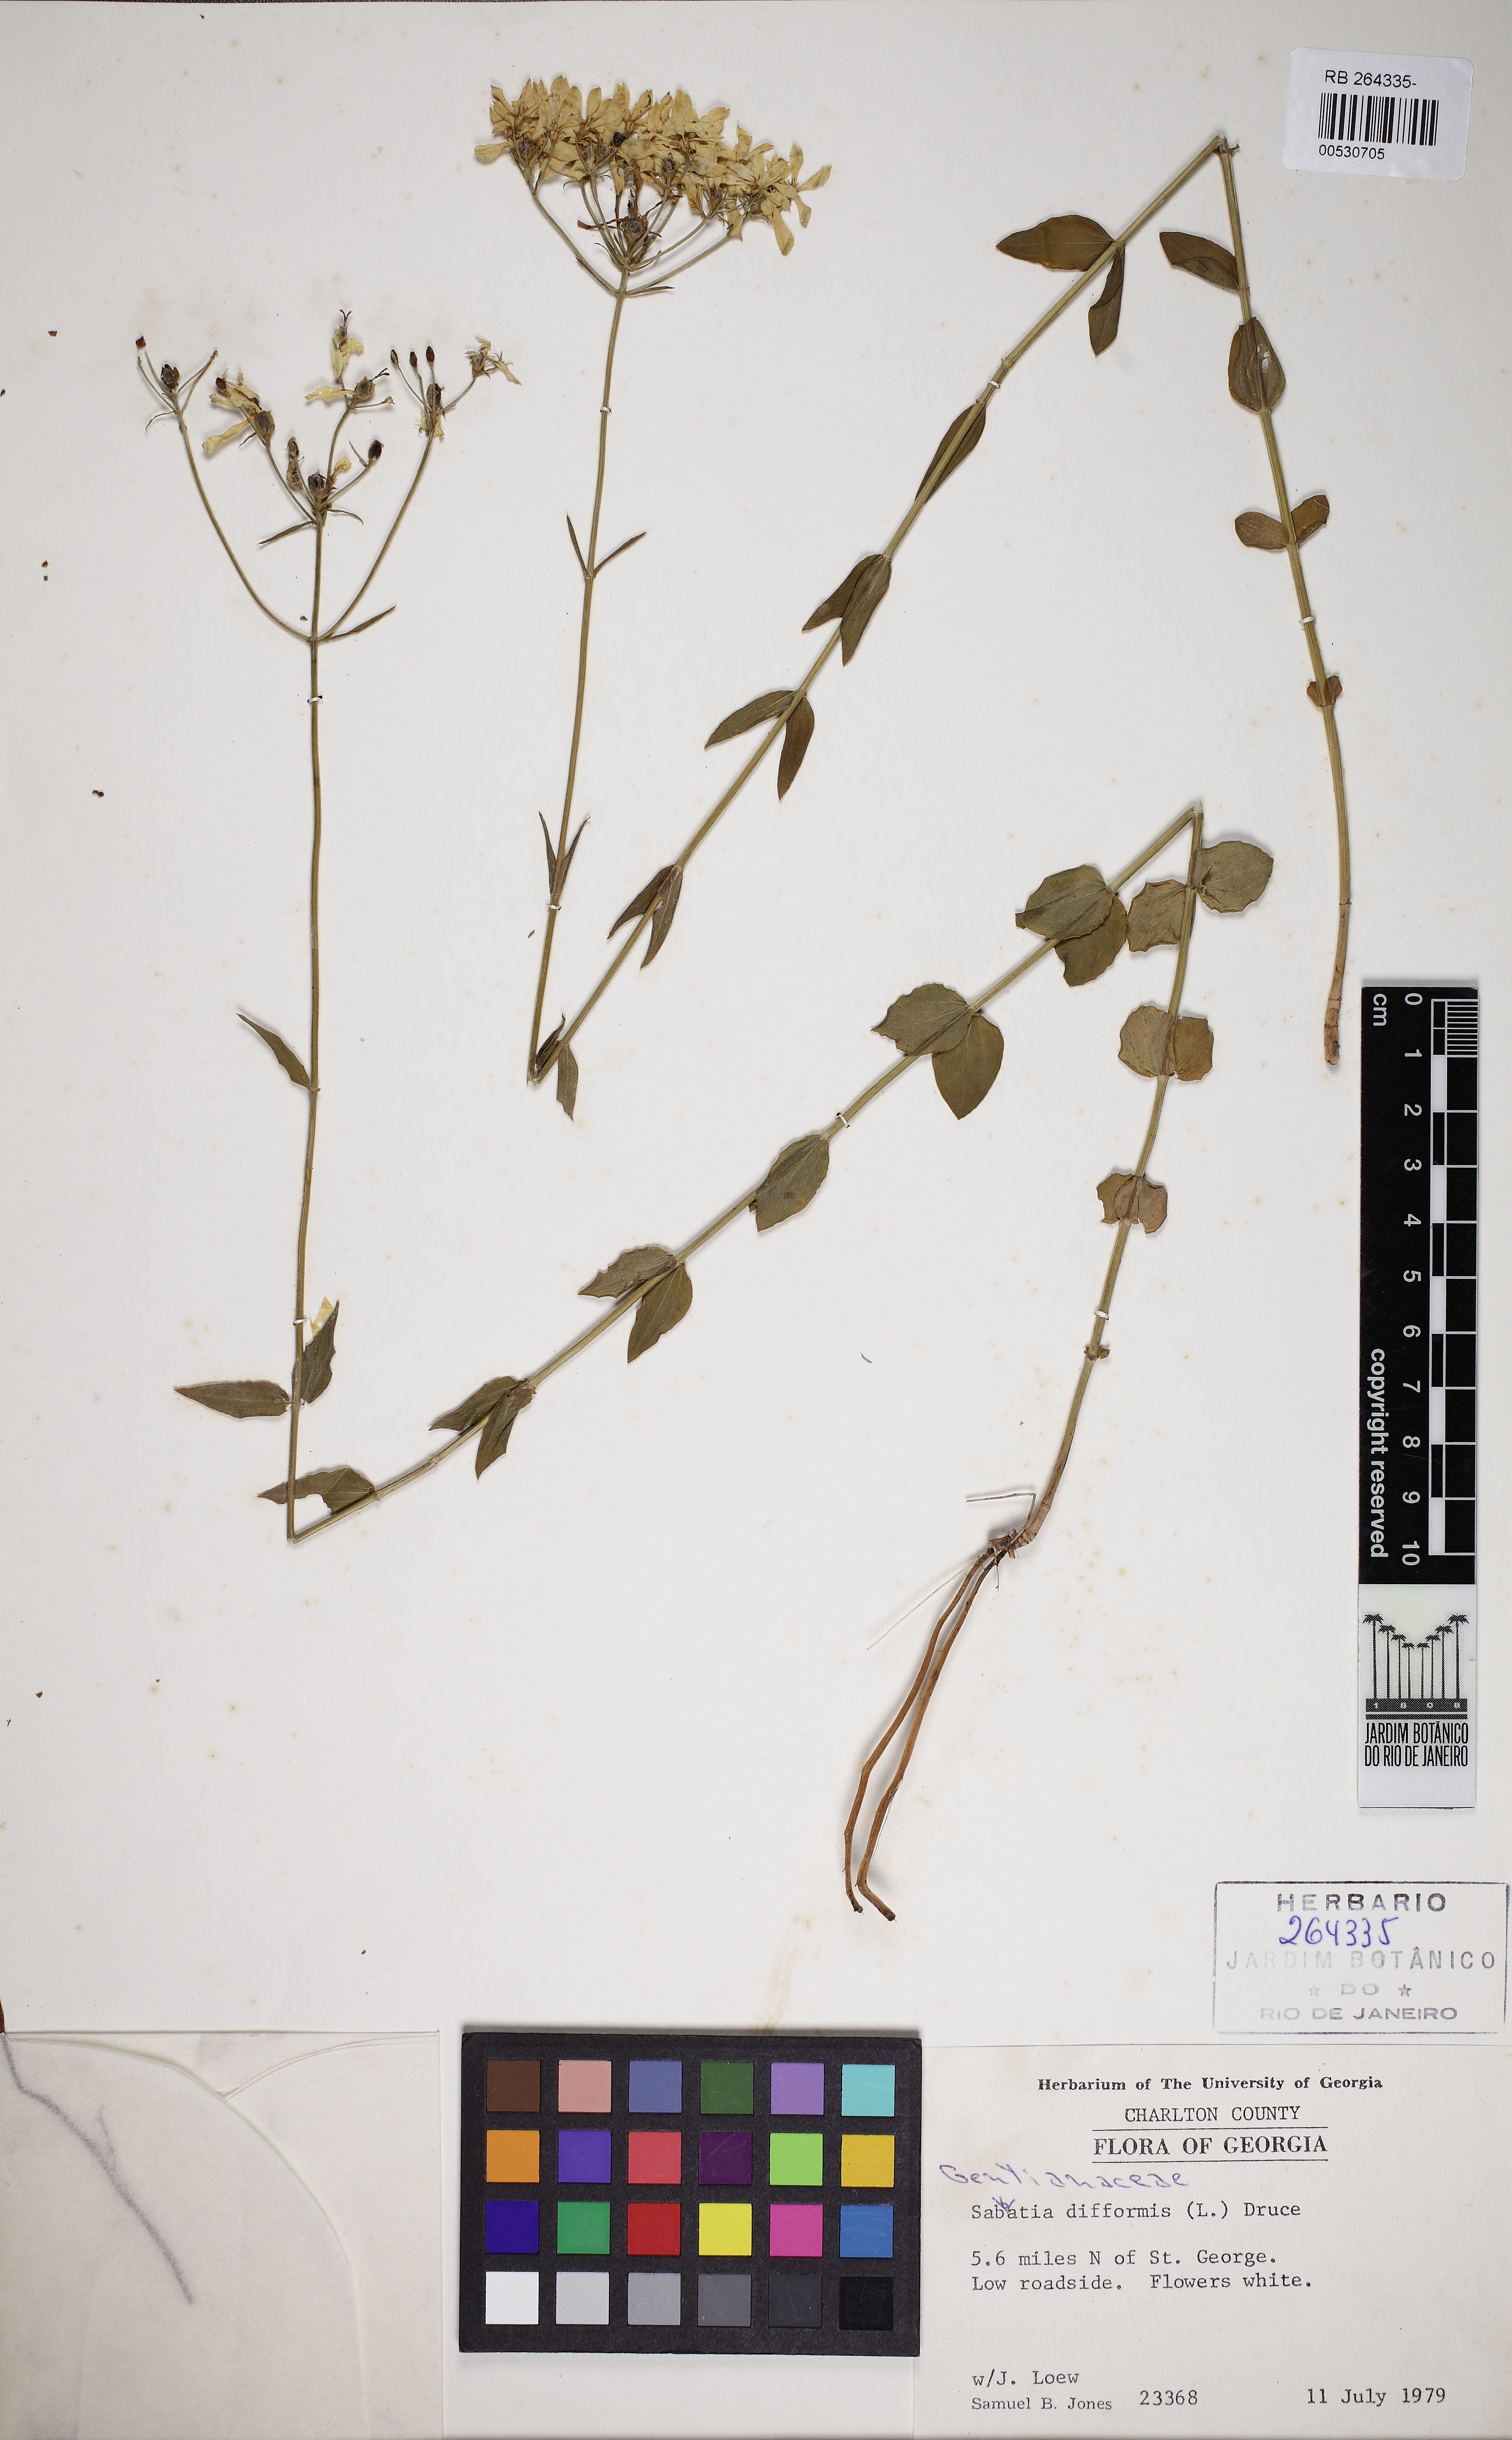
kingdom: Plantae
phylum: Tracheophyta
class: Magnoliopsida
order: Gentianales
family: Gentianaceae
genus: Sabatia
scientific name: Sabatia difformis
